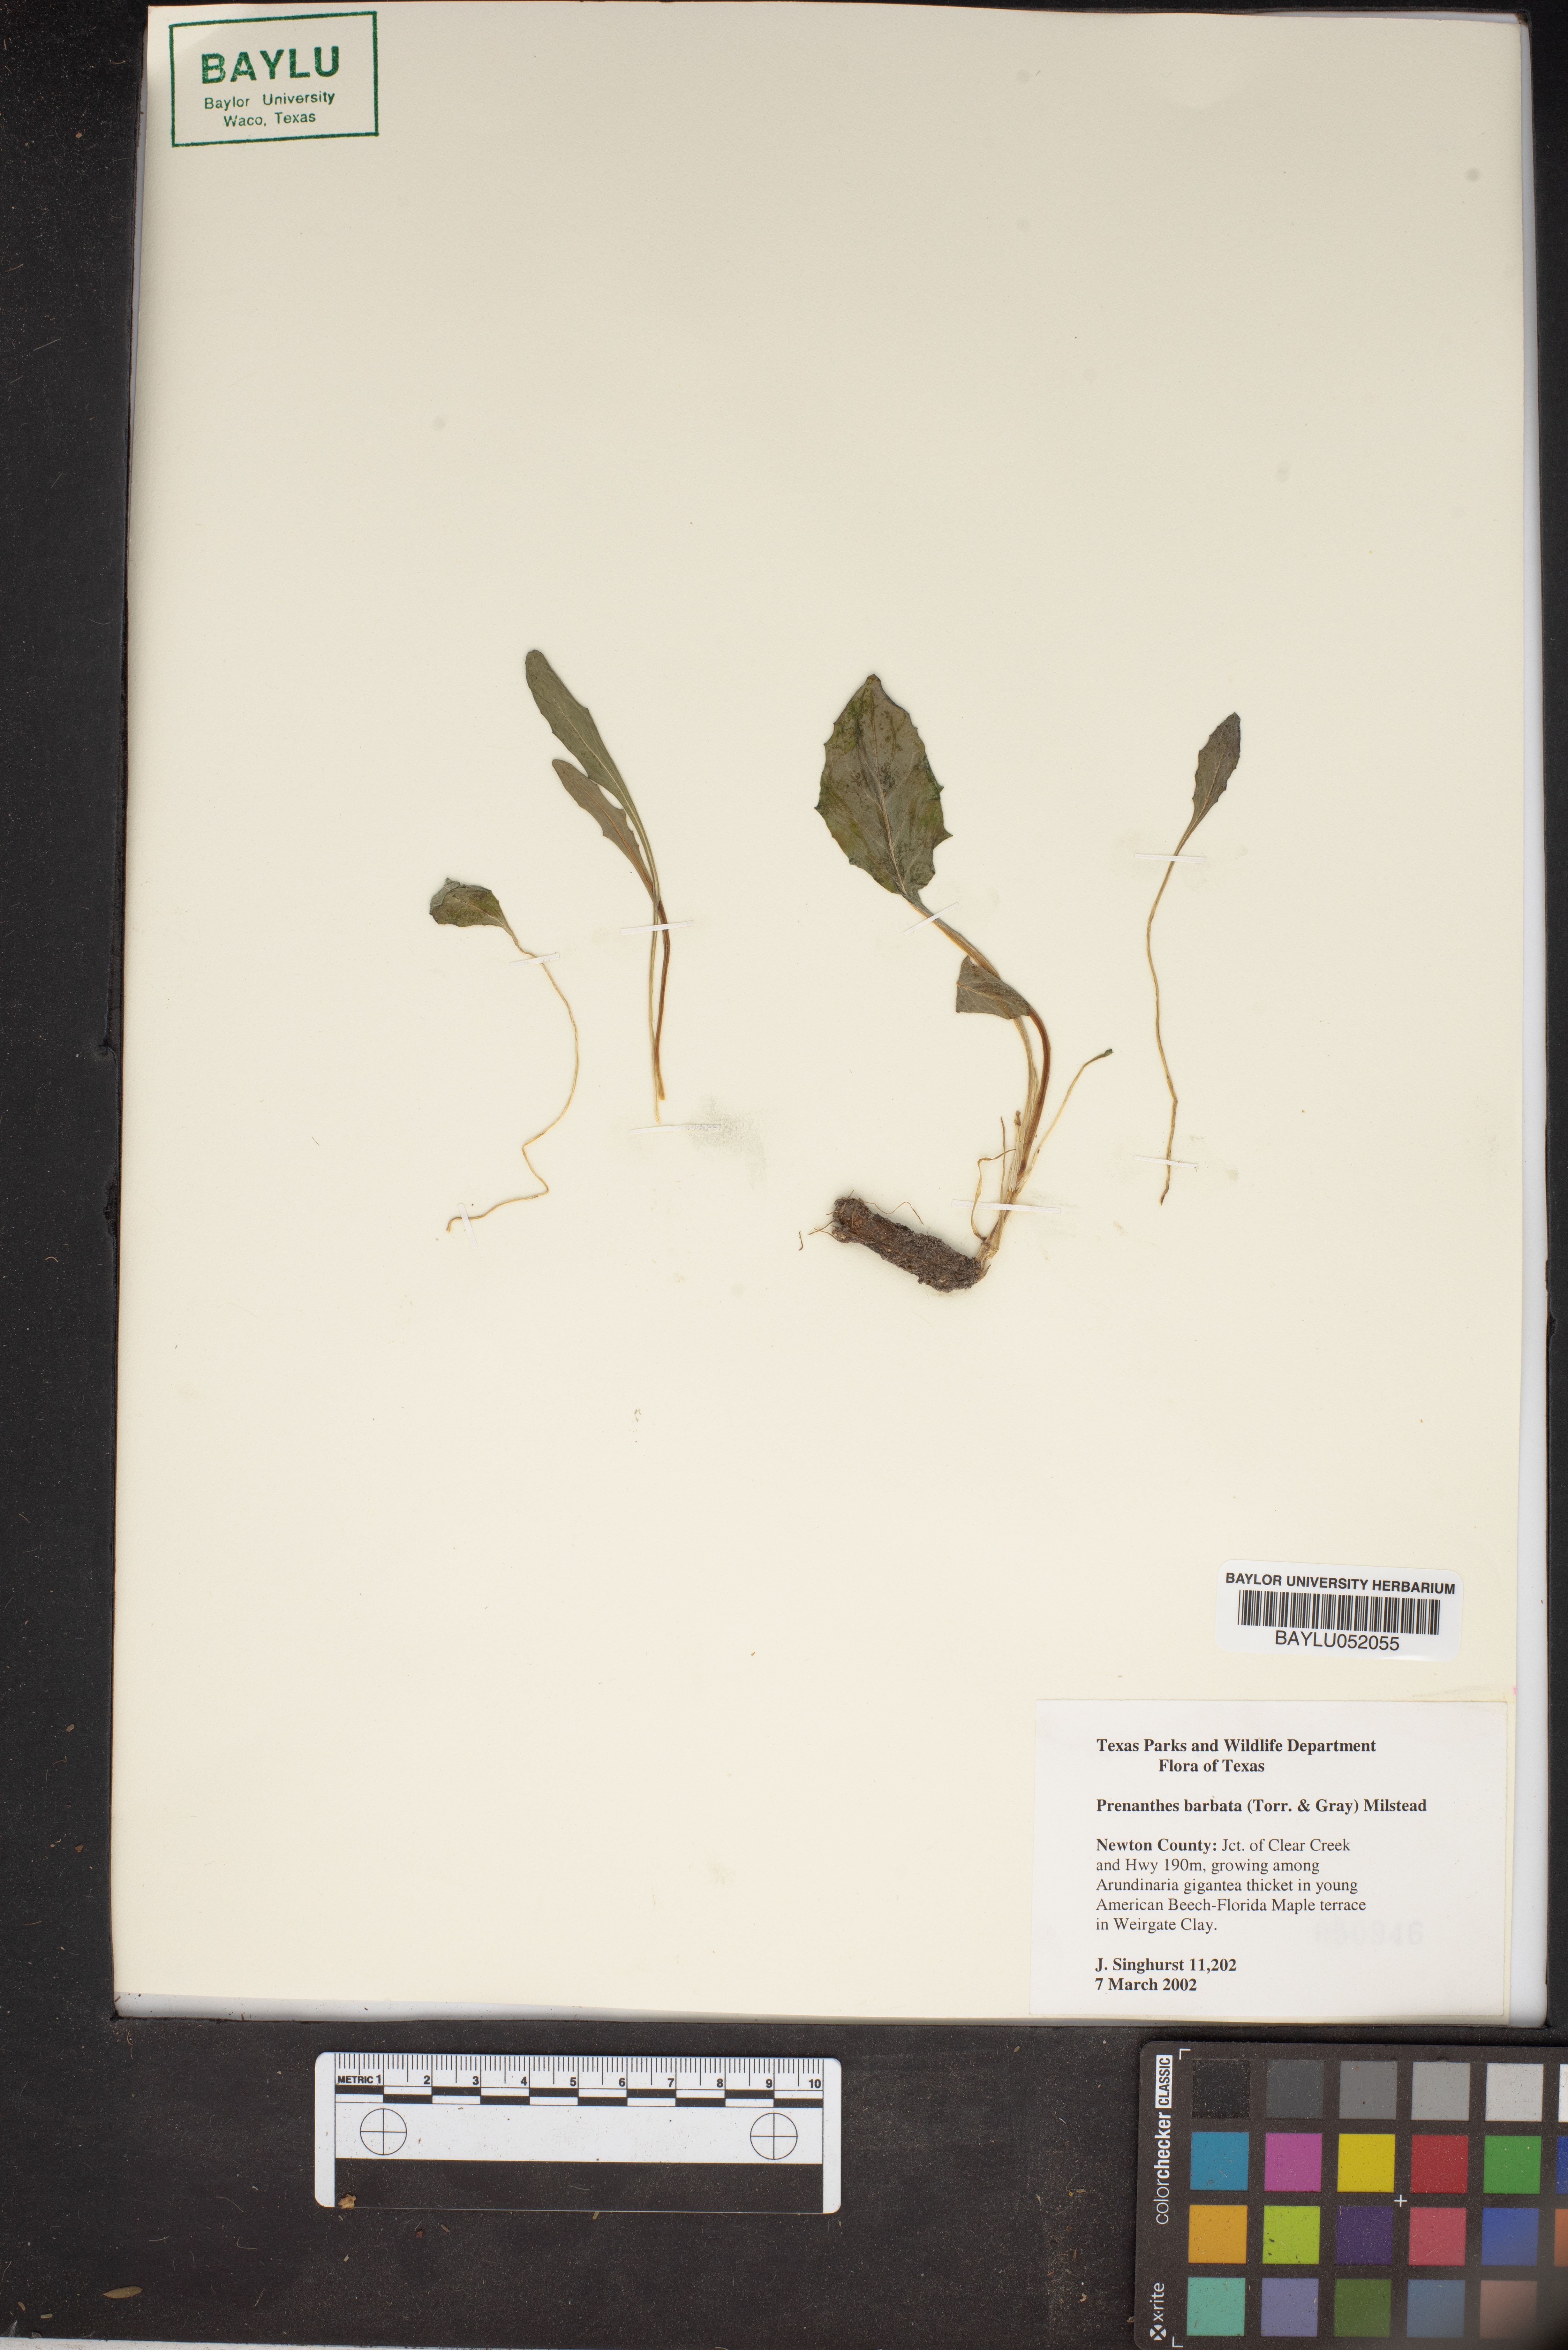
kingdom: Plantae
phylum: Tracheophyta
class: Magnoliopsida
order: Asterales
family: Asteraceae
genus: Nabalus
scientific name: Nabalus barbata
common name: Barbed rattlesnakeroot
